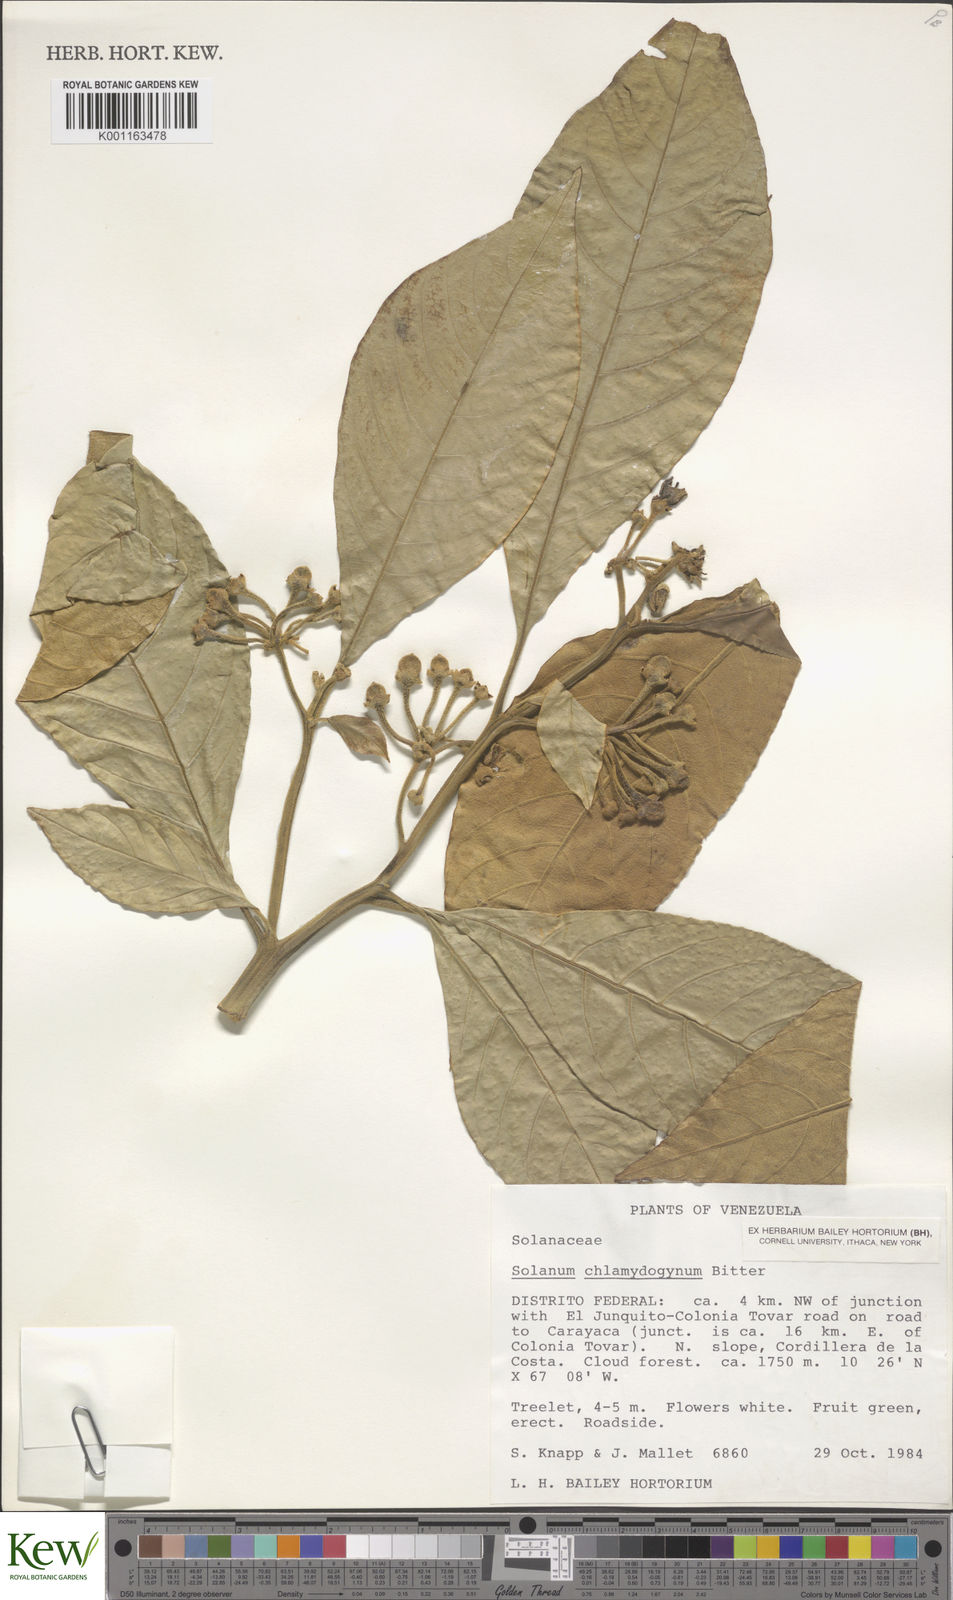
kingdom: Plantae
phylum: Tracheophyta
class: Magnoliopsida
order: Solanales
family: Solanaceae
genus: Solanum
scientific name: Solanum chlamydogynum
